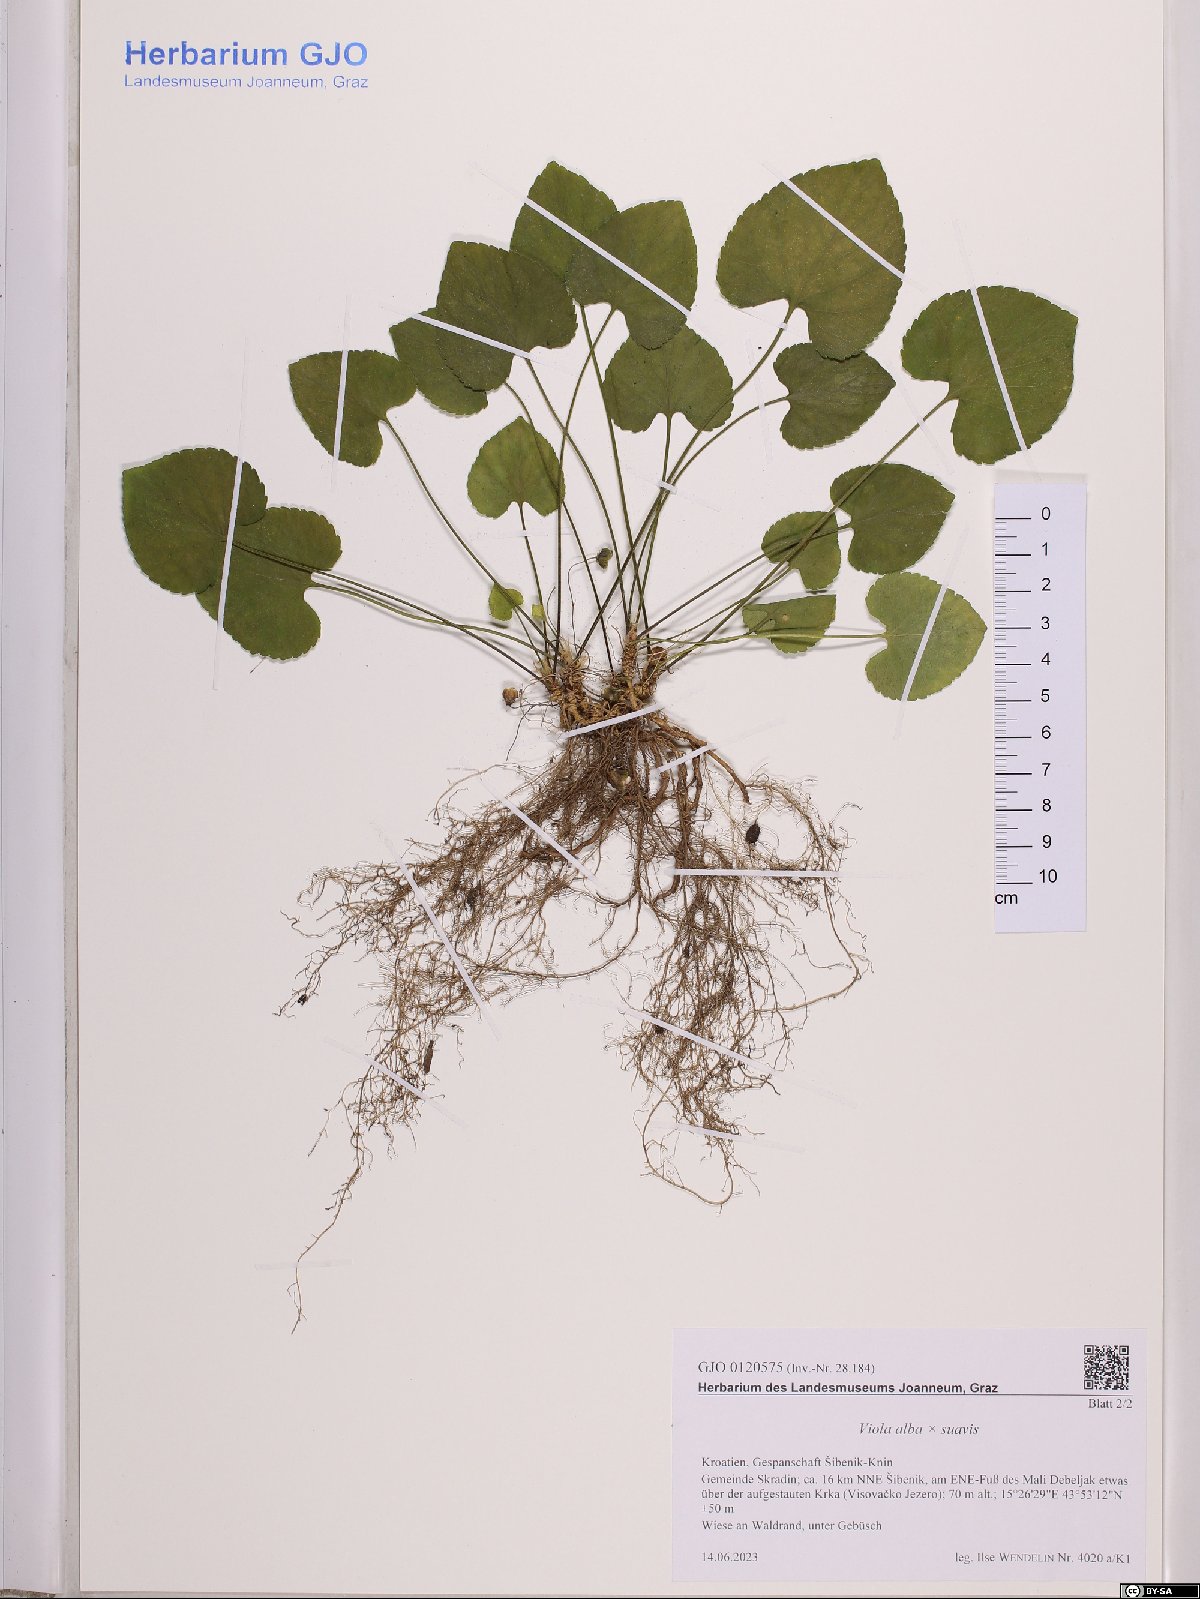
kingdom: Plantae
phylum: Tracheophyta
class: Magnoliopsida
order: Malpighiales
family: Violaceae
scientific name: Violaceae
